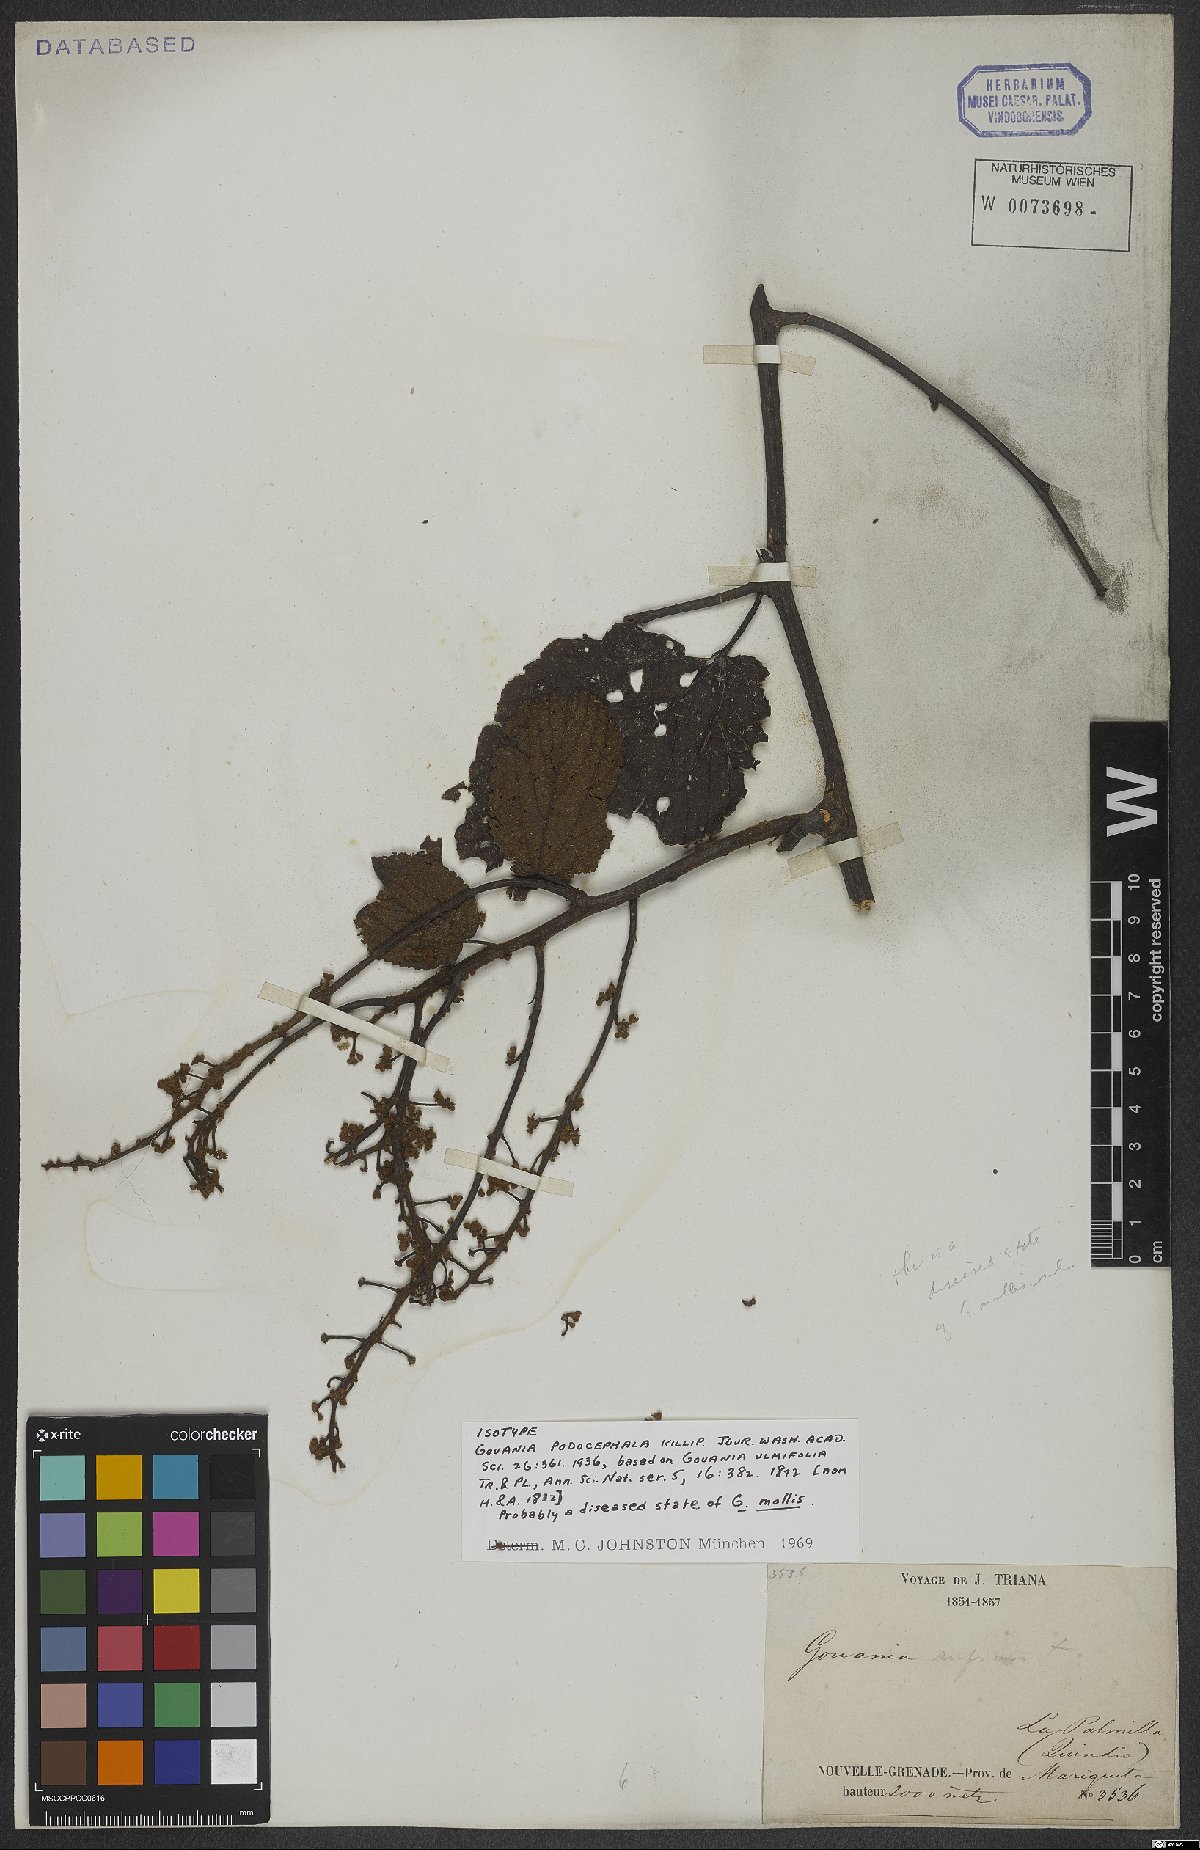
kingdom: Plantae
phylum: Tracheophyta
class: Magnoliopsida
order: Rosales
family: Rhamnaceae
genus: Gouania
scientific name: Gouania podocephala
